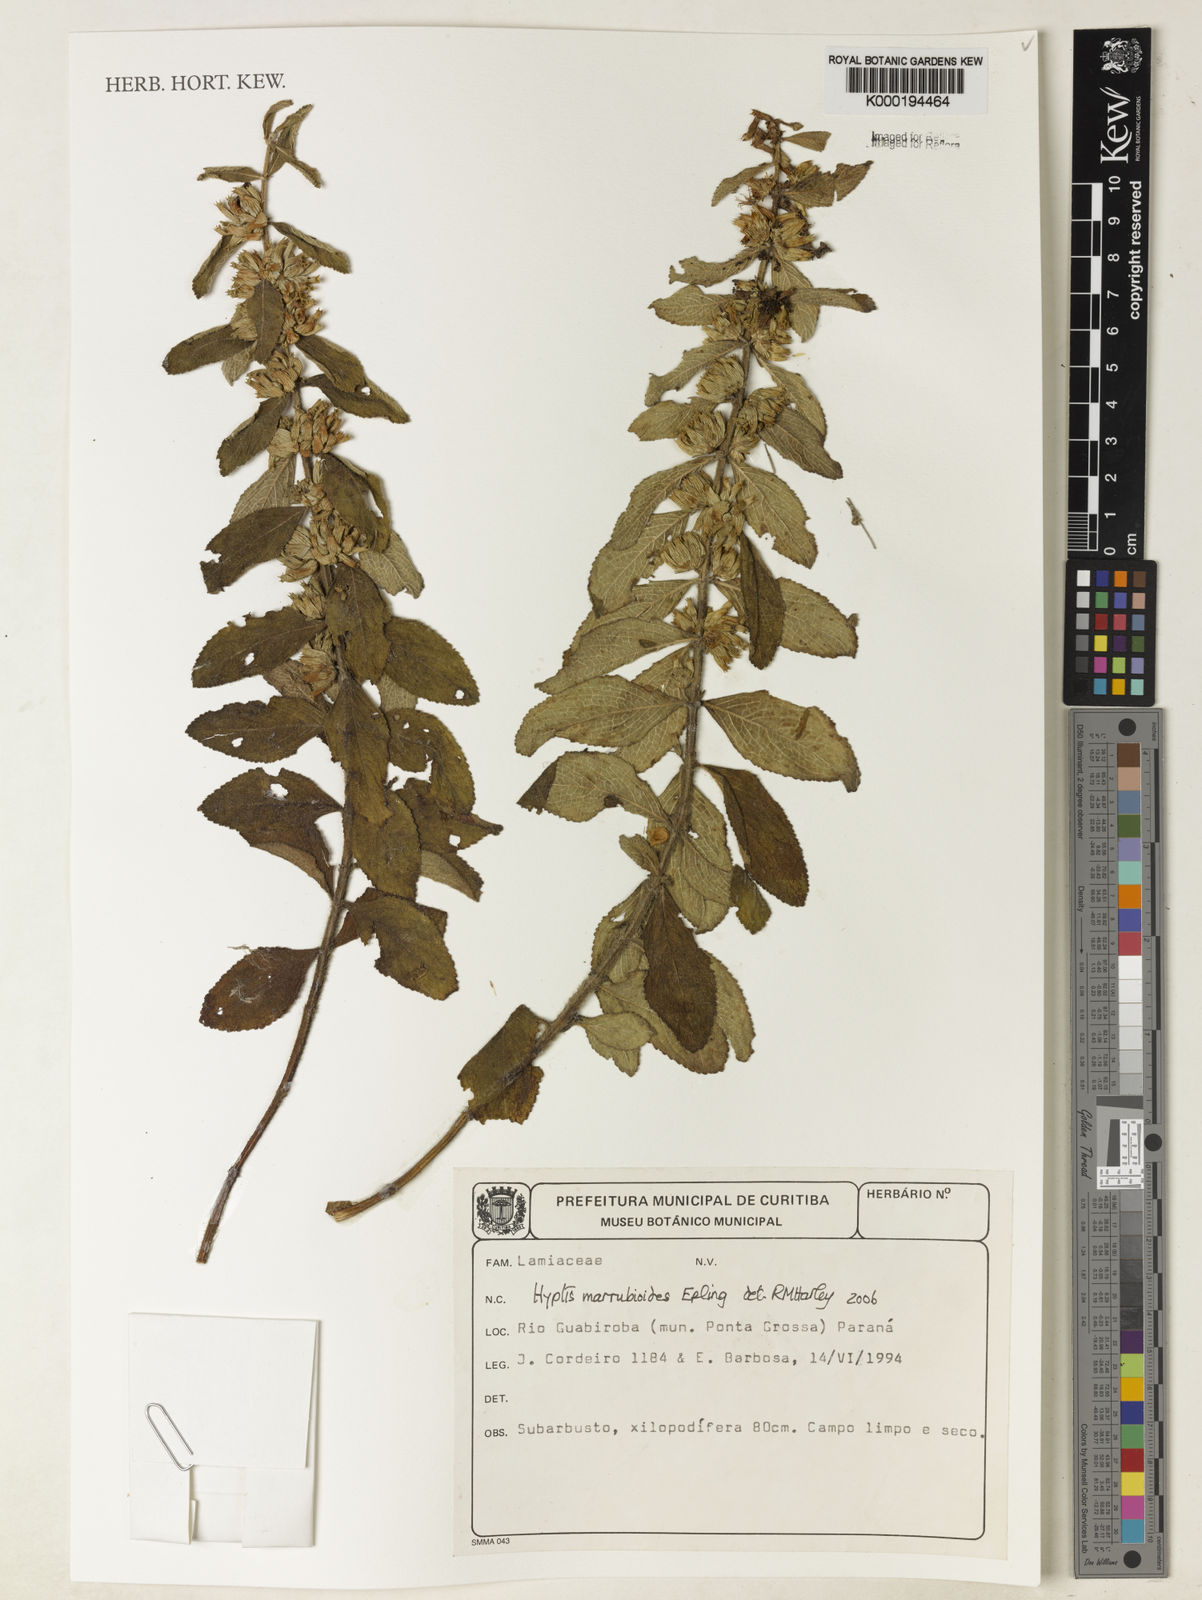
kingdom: Plantae
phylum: Tracheophyta
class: Magnoliopsida
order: Lamiales
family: Lamiaceae
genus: Hyptis
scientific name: Hyptis marrubioides
